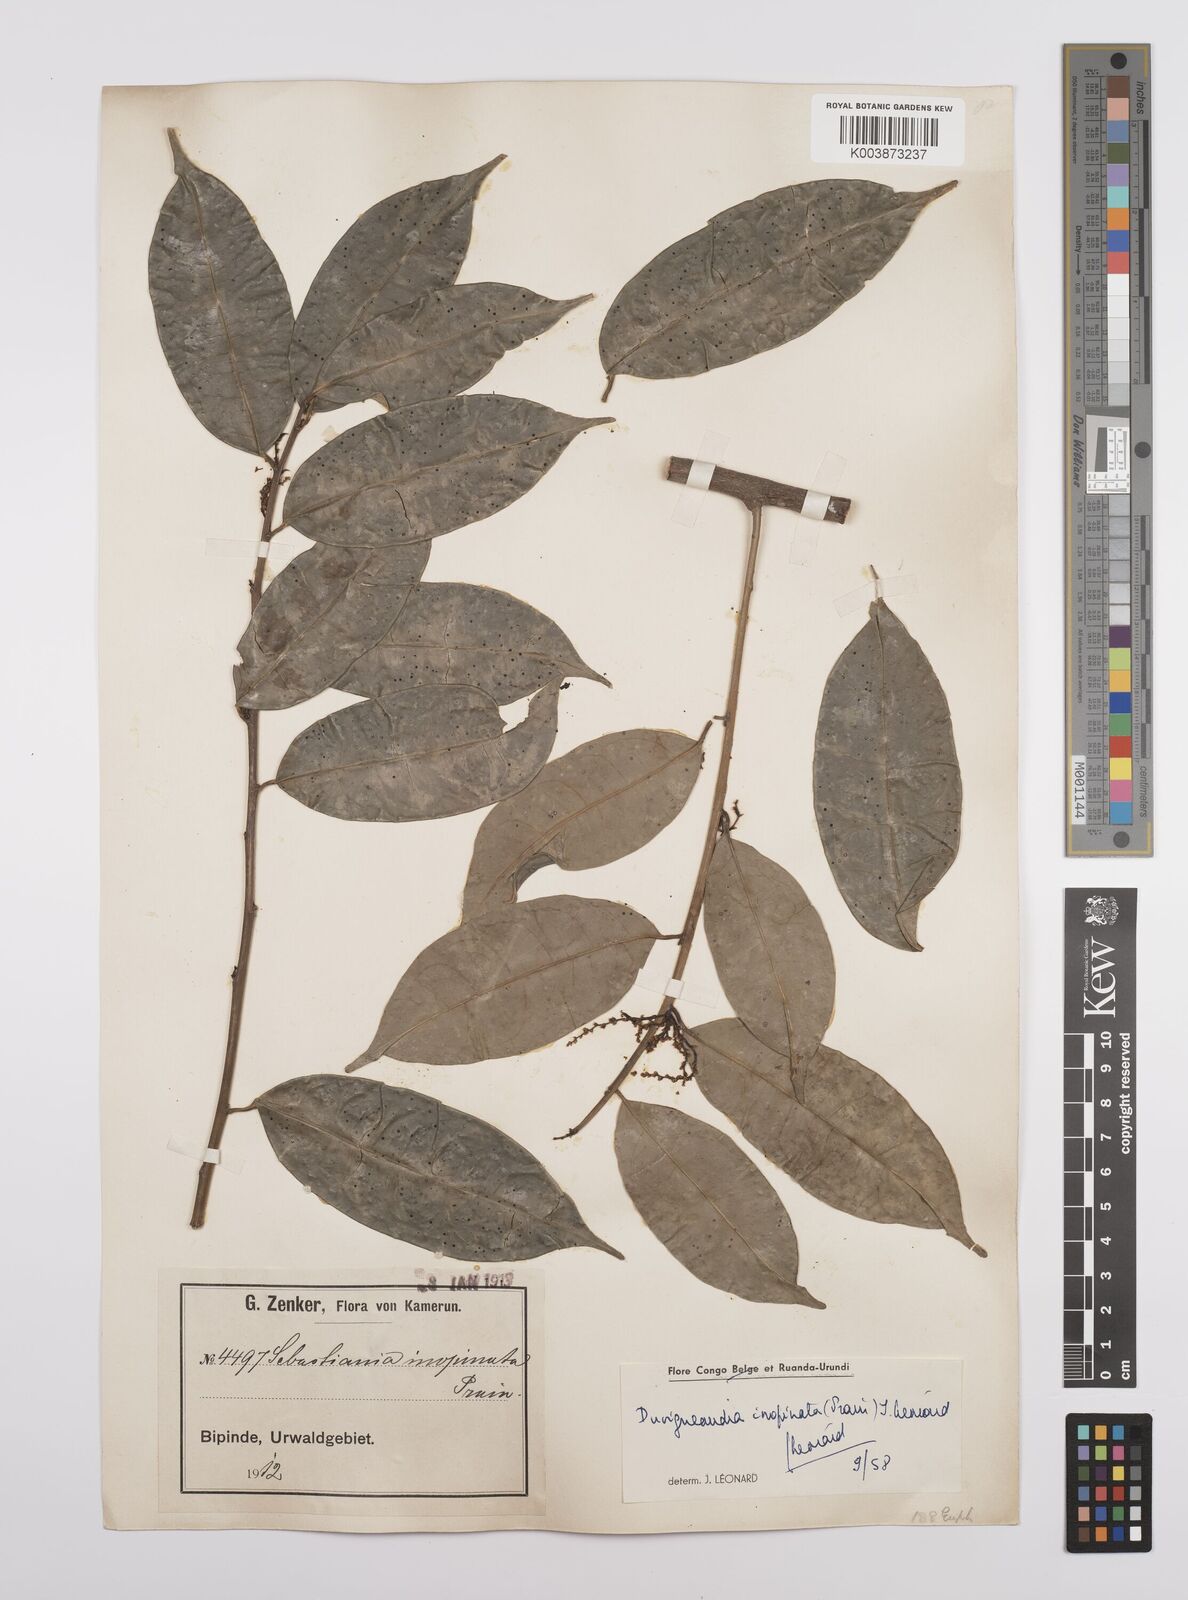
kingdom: Plantae
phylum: Tracheophyta
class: Magnoliopsida
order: Malpighiales
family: Euphorbiaceae
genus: Gymnanthes
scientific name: Gymnanthes inopinata
